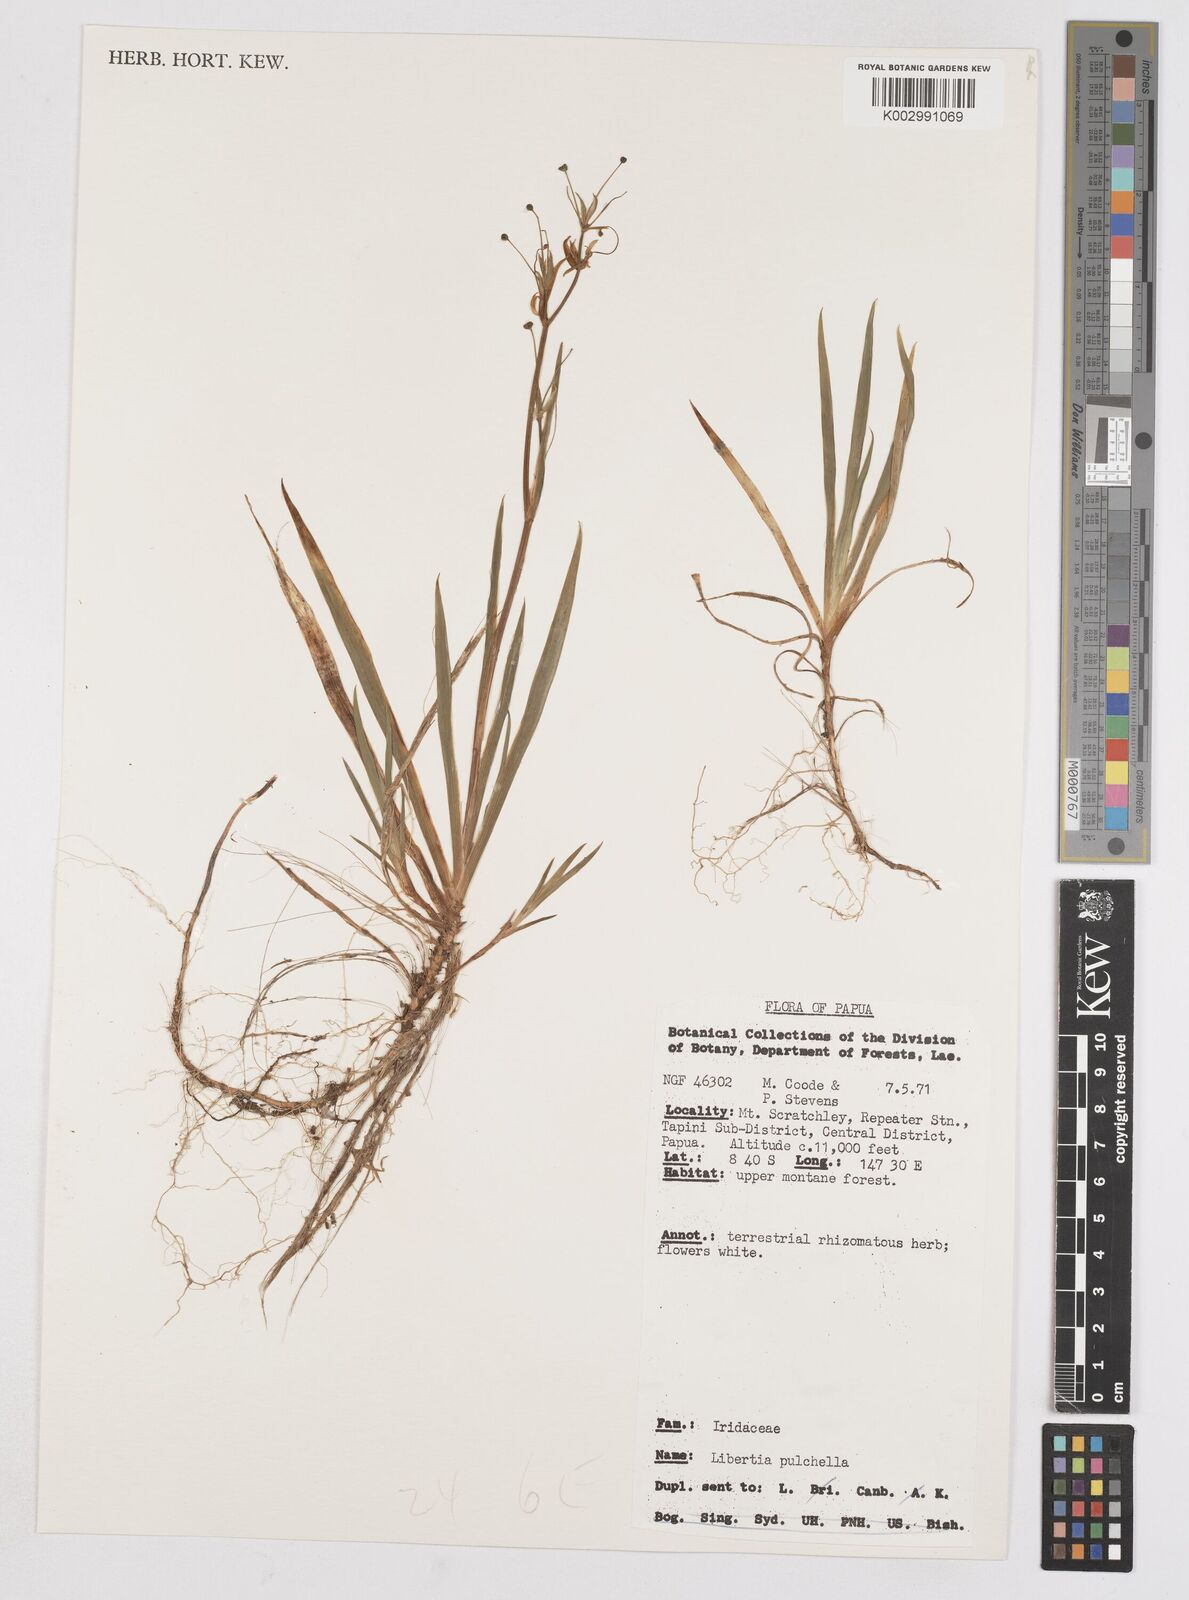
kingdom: Plantae
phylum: Tracheophyta
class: Liliopsida
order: Asparagales
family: Iridaceae
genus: Libertia
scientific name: Libertia pulchella
